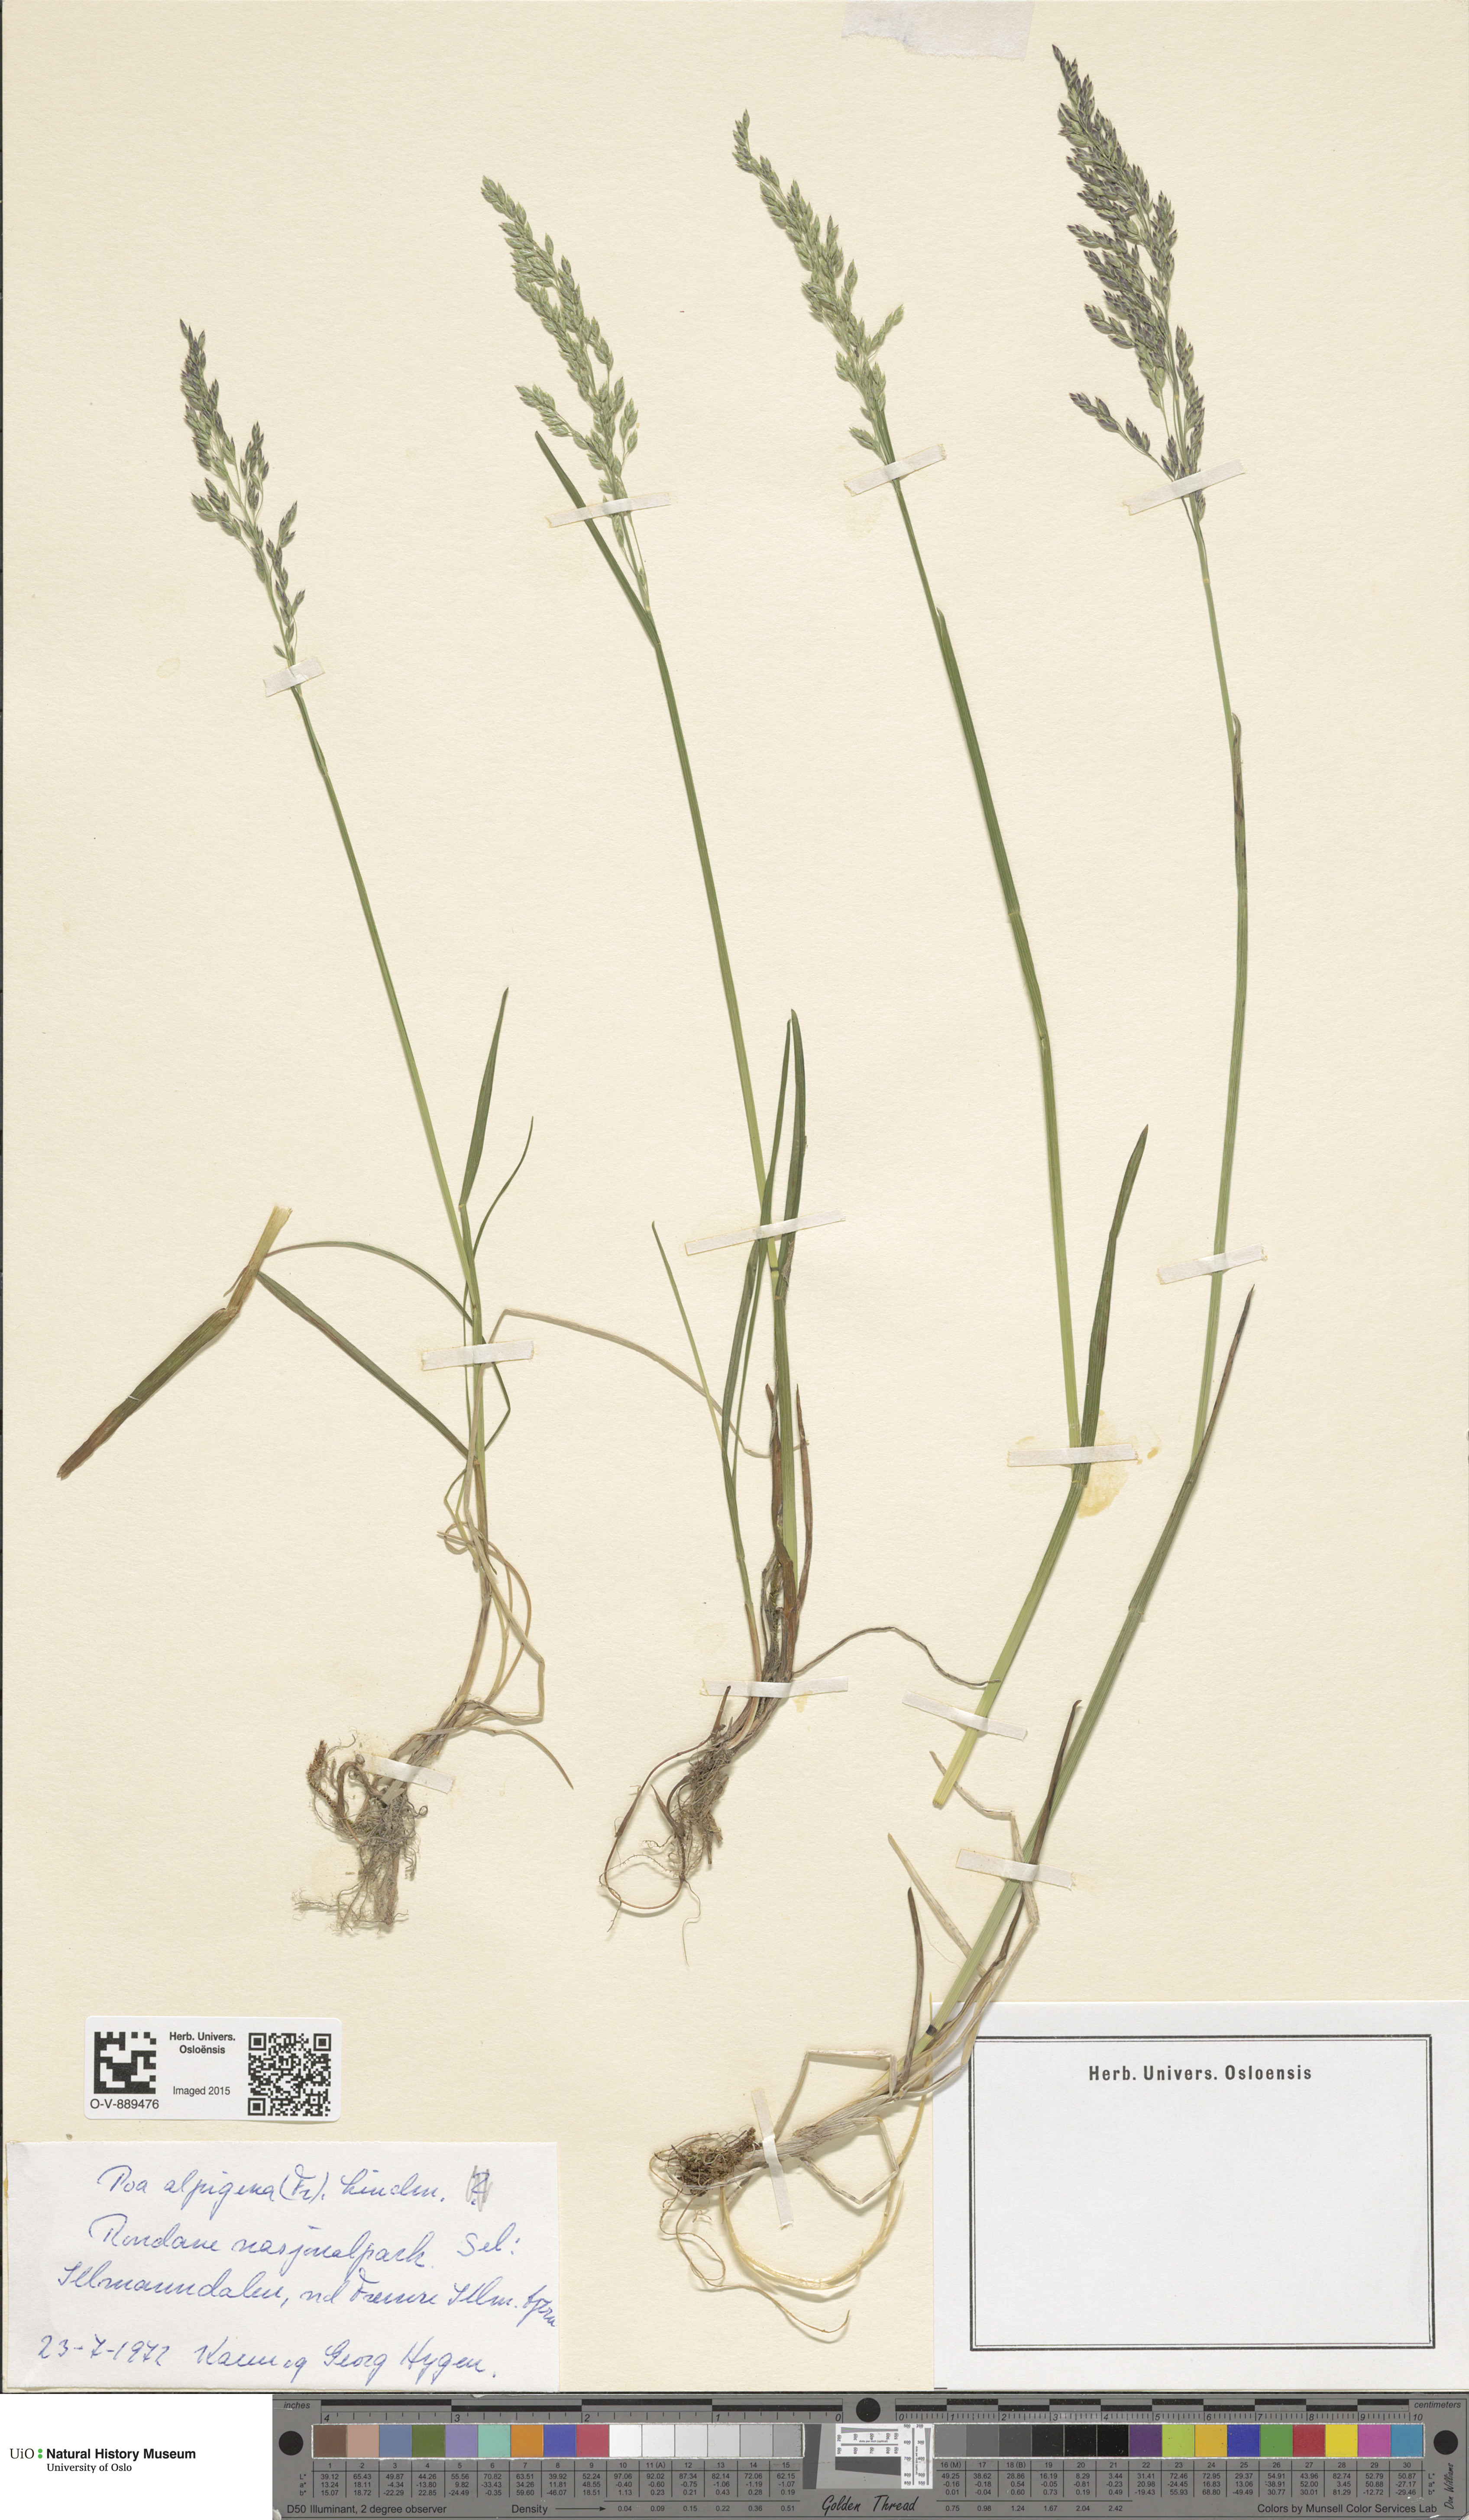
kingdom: Plantae
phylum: Tracheophyta
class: Liliopsida
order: Poales
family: Poaceae
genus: Poa
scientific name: Poa alpigena
